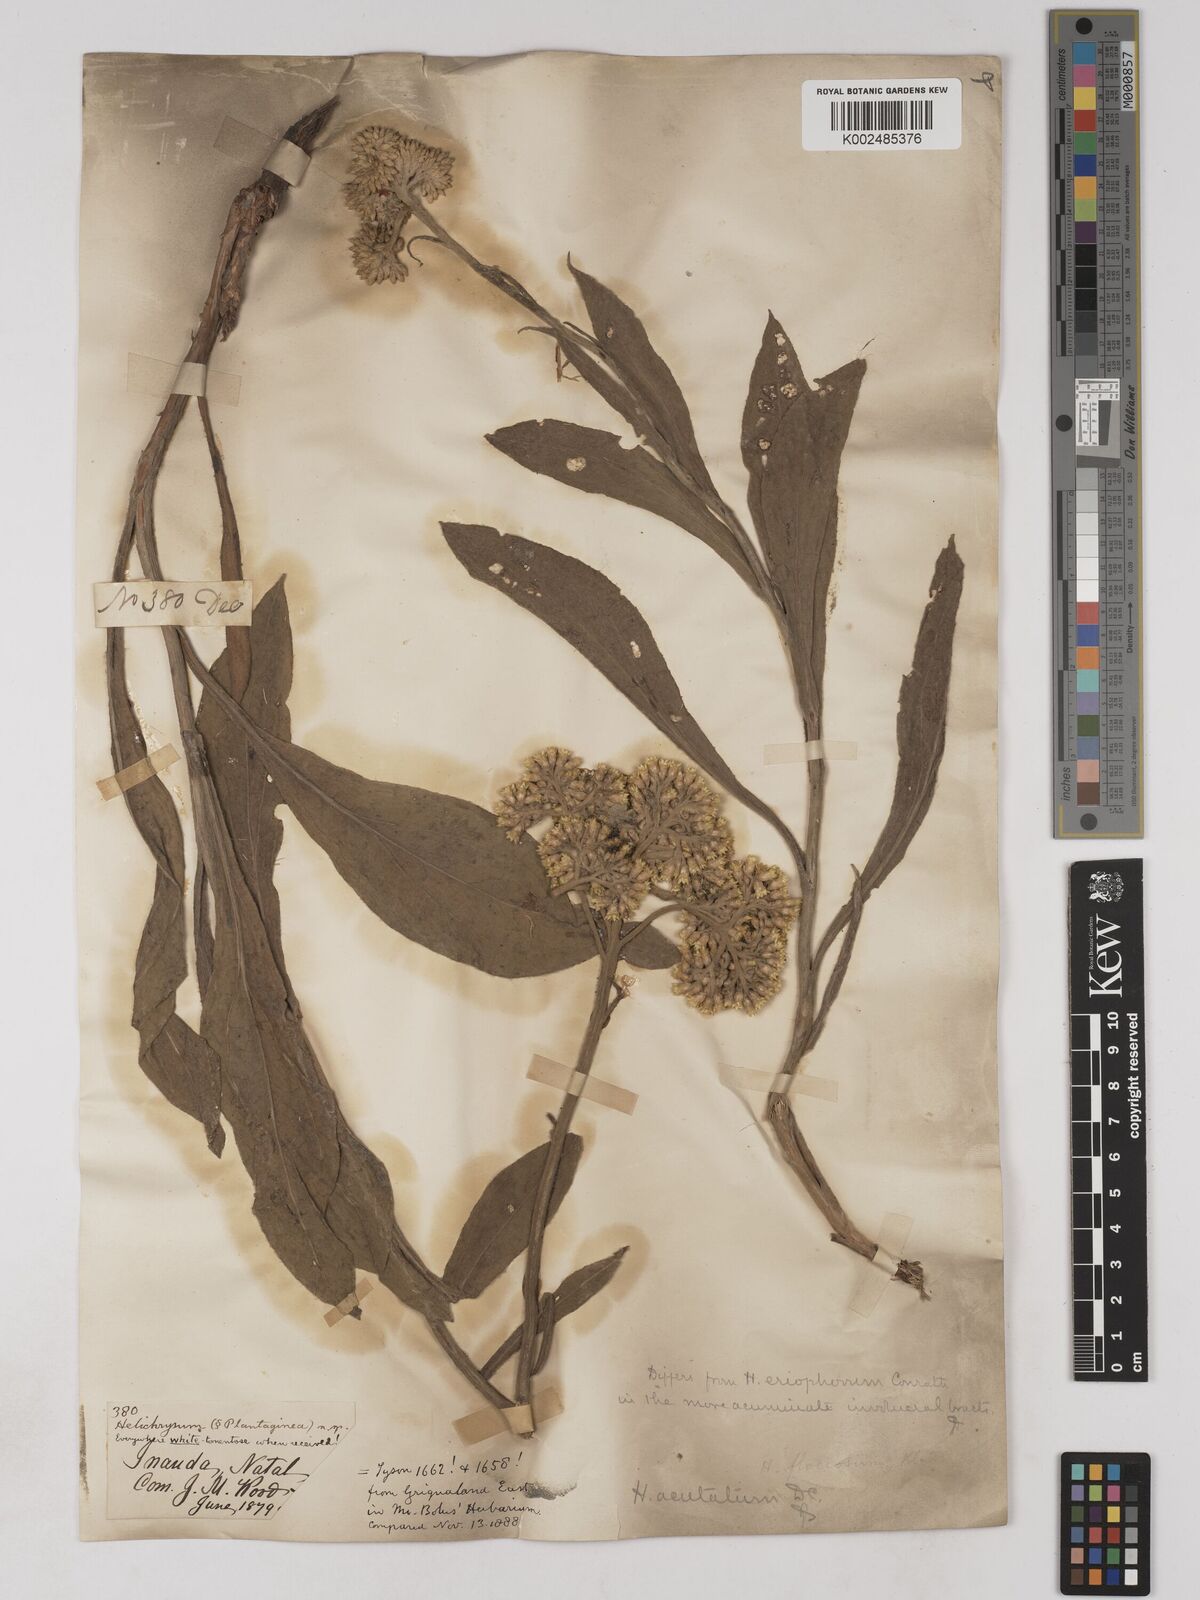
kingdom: Plantae
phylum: Tracheophyta
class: Magnoliopsida
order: Asterales
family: Asteraceae
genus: Helichrysum
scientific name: Helichrysum acutatum
